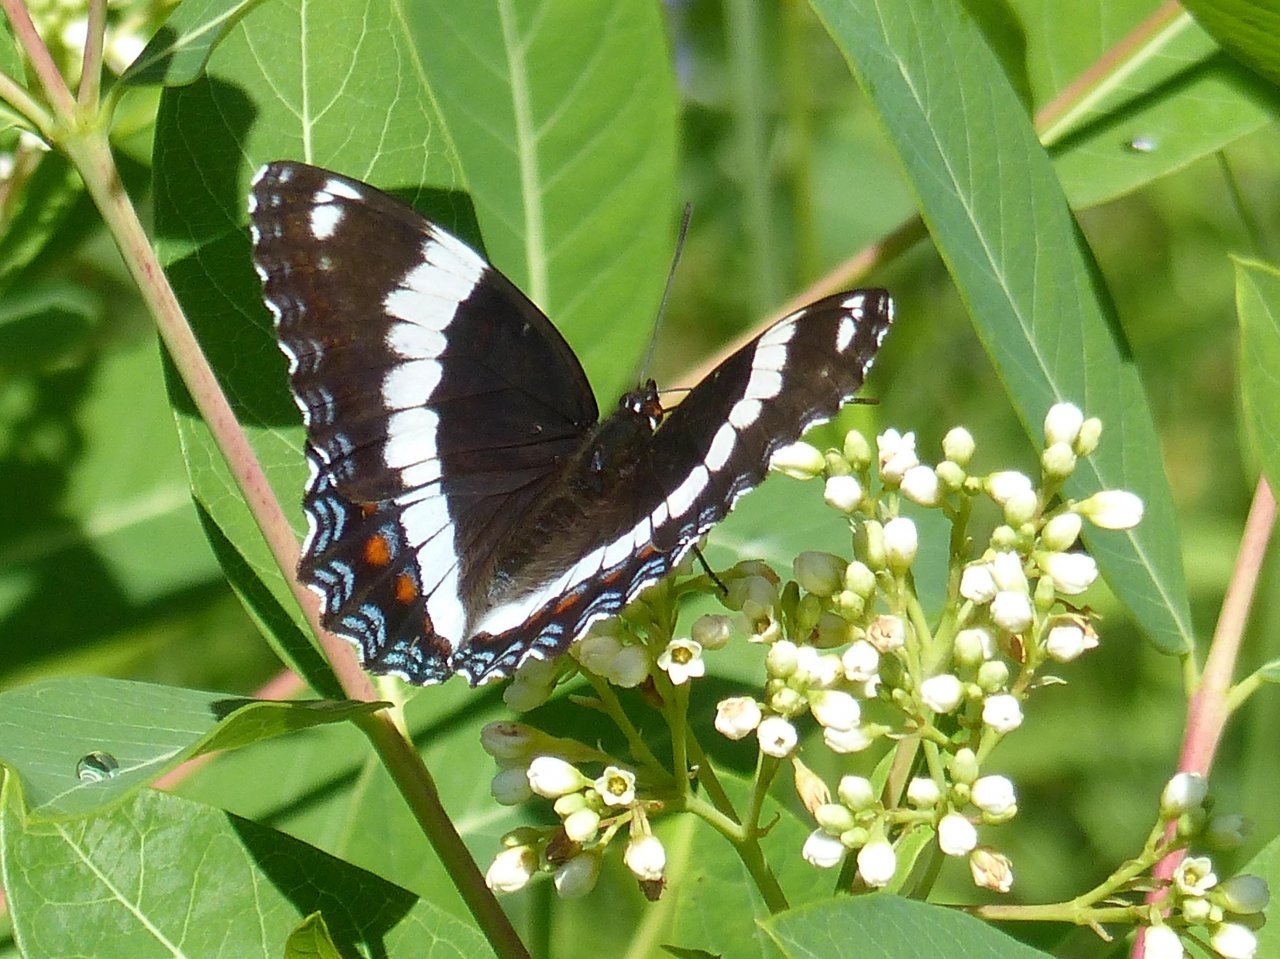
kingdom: Animalia
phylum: Arthropoda
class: Insecta
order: Lepidoptera
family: Nymphalidae
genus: Limenitis
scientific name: Limenitis arthemis
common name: Red-spotted Admiral
